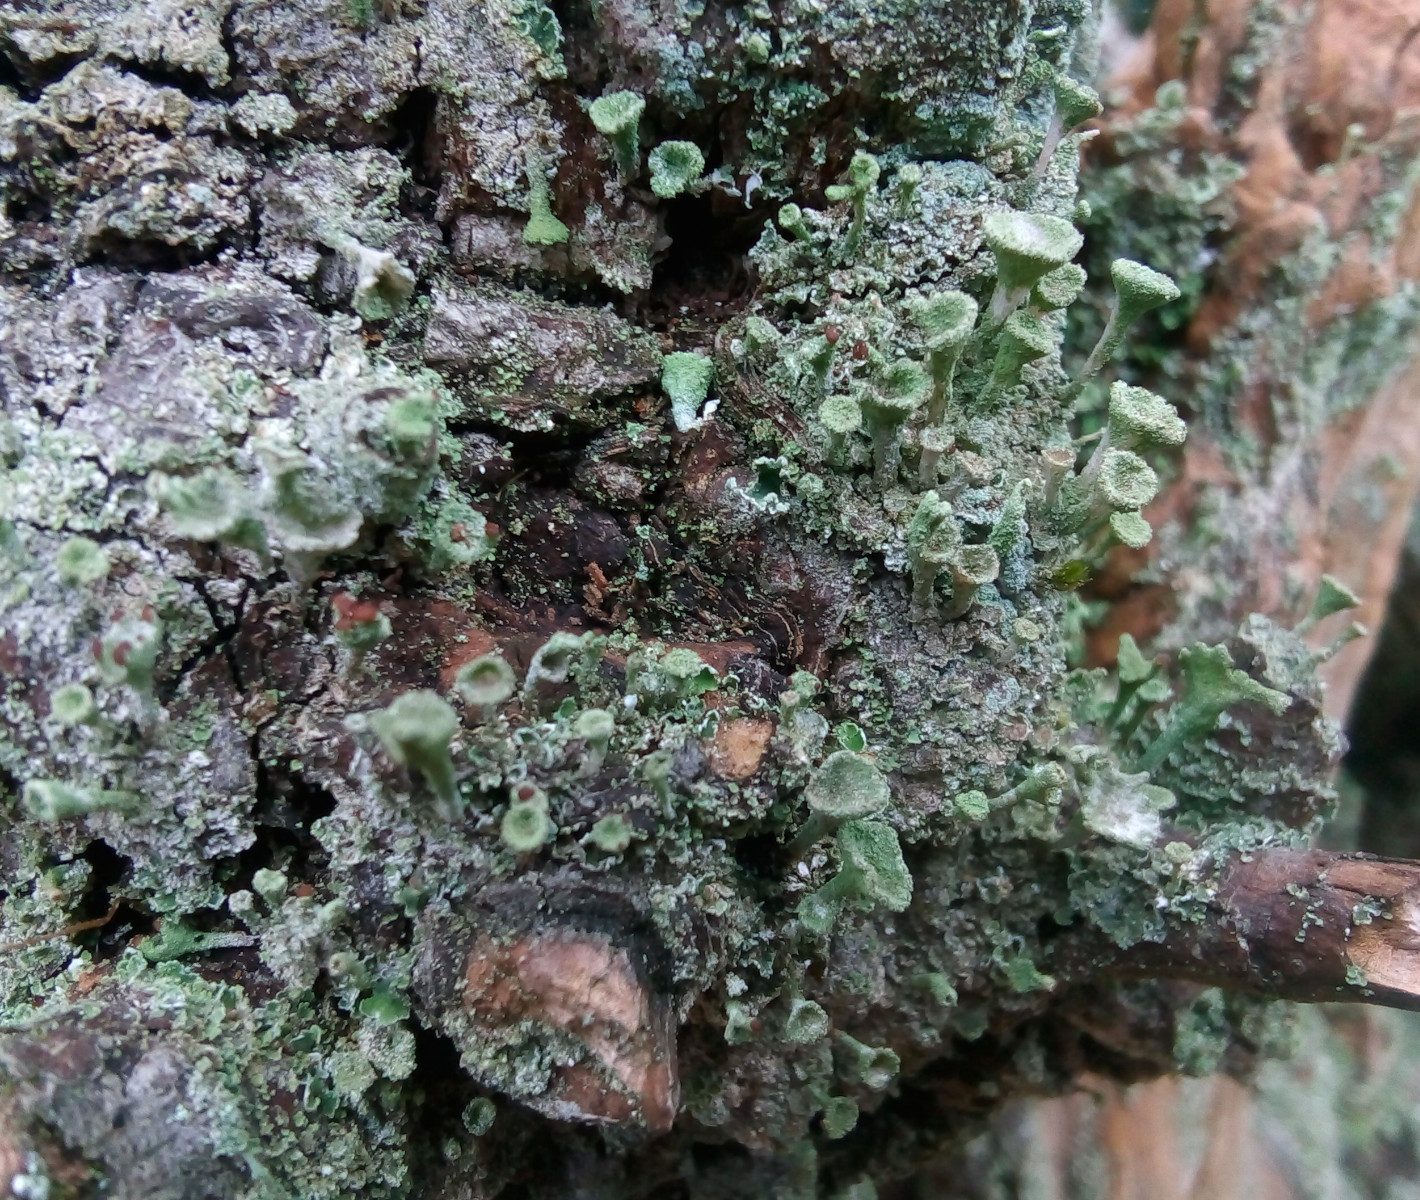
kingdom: Fungi
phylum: Ascomycota
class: Lecanoromycetes
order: Lecanorales
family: Cladoniaceae
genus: Cladonia
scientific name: Cladonia fimbriata
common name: bleggrøn bægerlav
